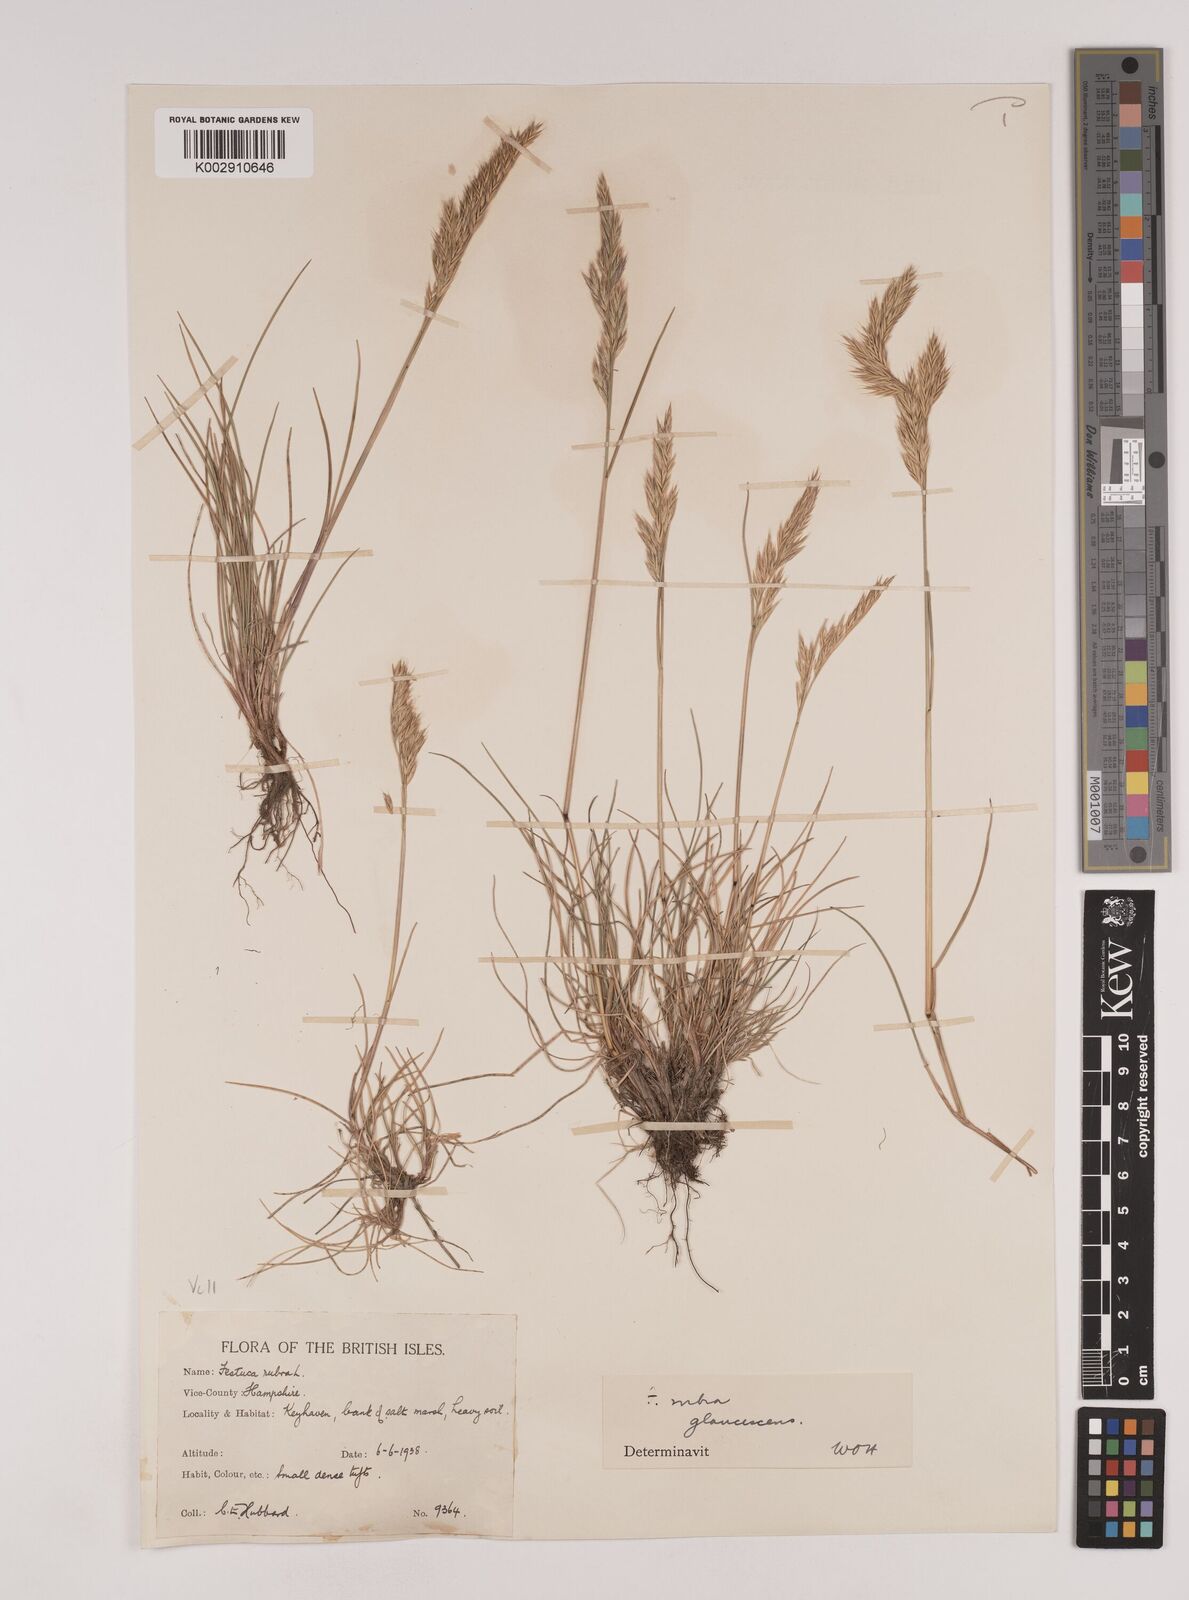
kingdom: Plantae
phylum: Tracheophyta
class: Liliopsida
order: Poales
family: Poaceae
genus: Festuca
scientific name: Festuca rubra
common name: Red fescue
